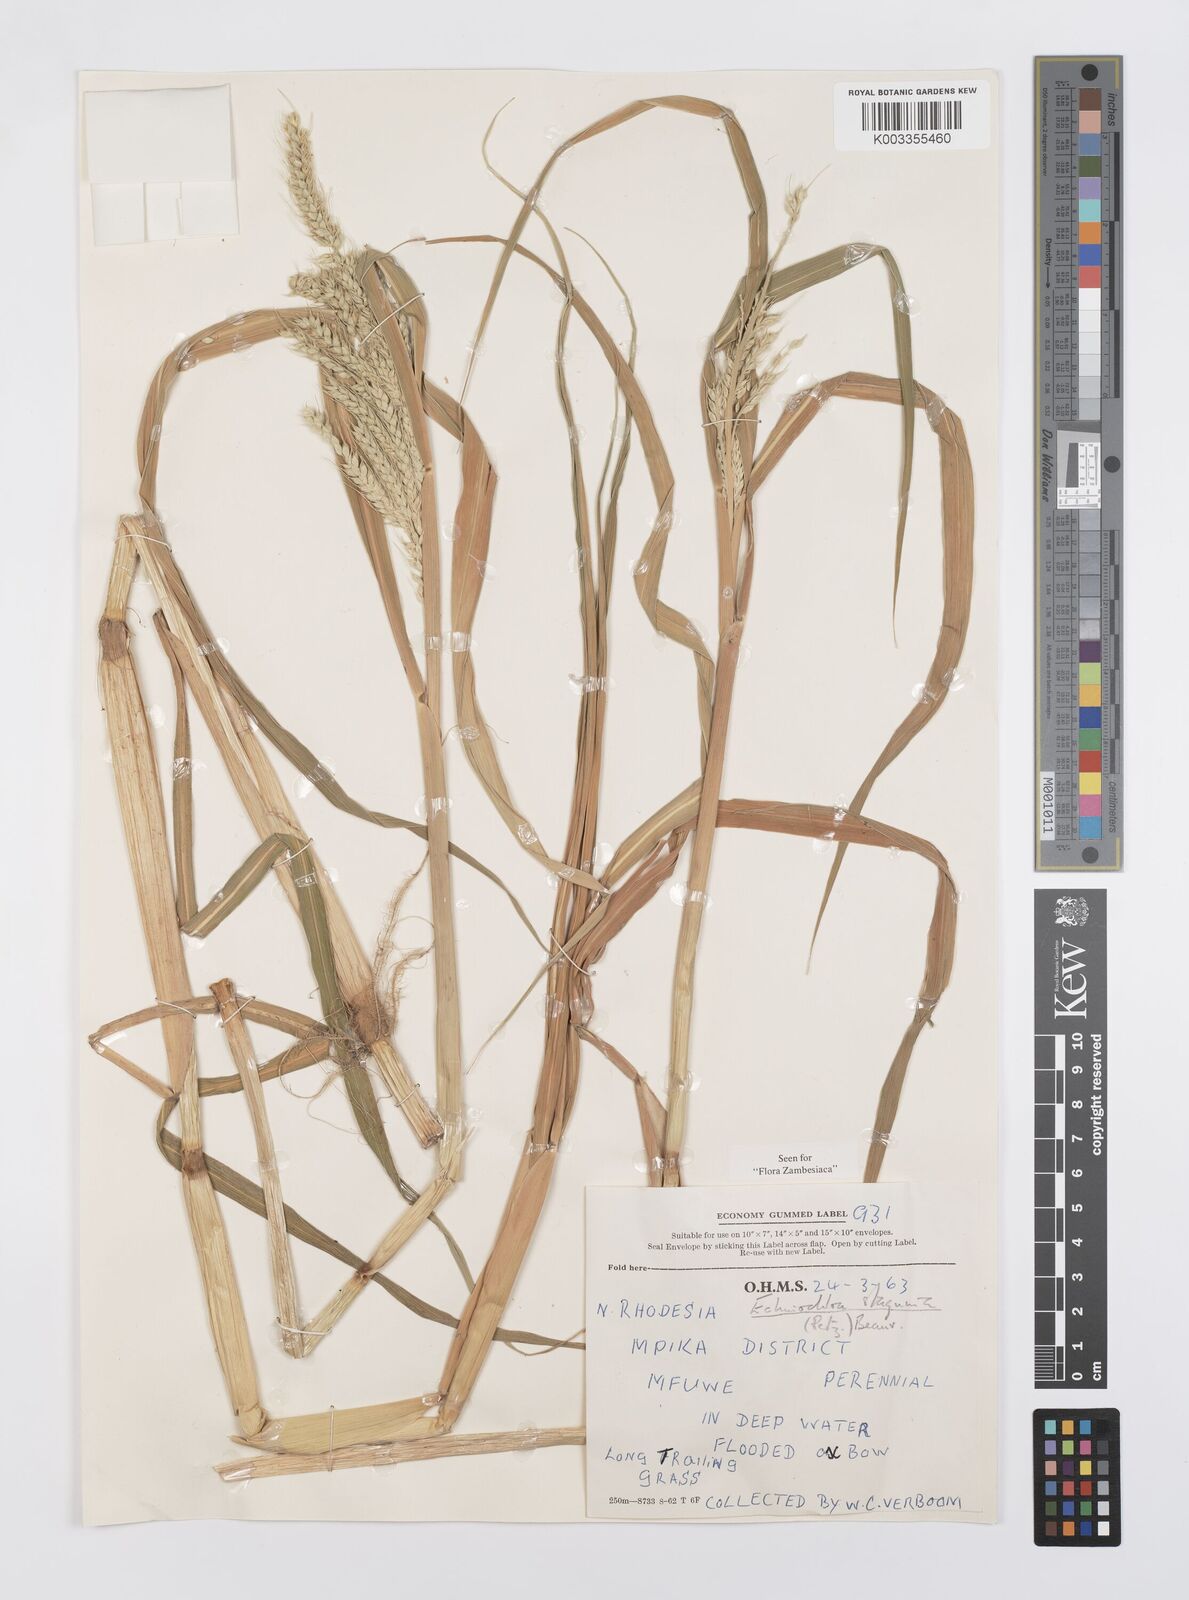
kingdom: Plantae
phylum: Tracheophyta
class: Liliopsida
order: Poales
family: Poaceae
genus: Echinochloa
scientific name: Echinochloa stagnina
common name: Burgu grass
